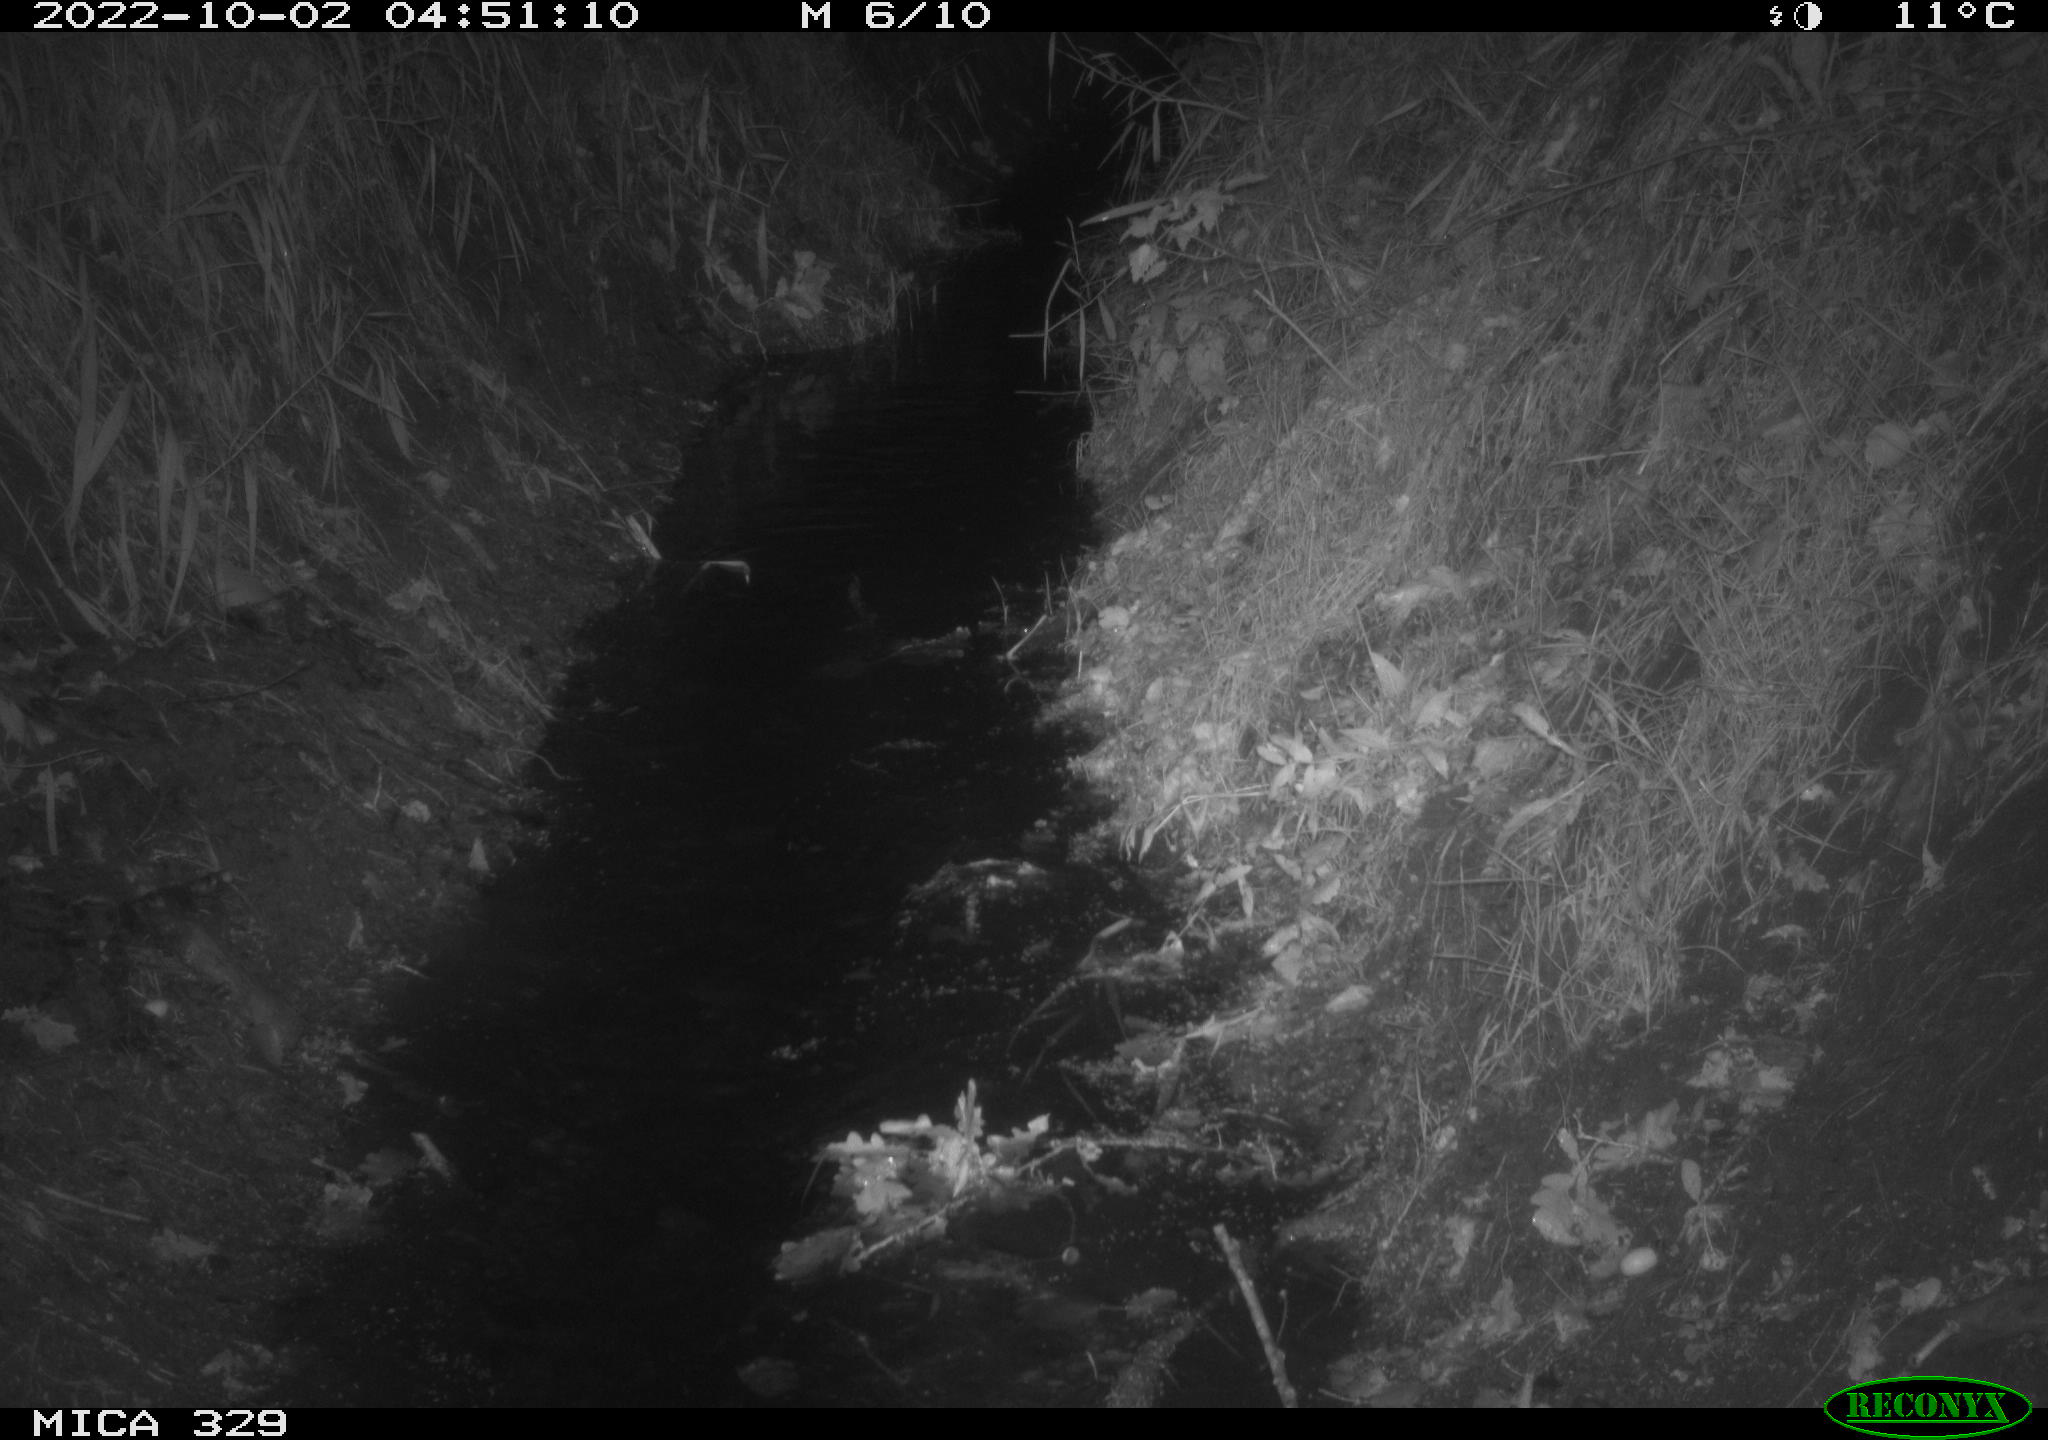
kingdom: Animalia
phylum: Chordata
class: Mammalia
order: Rodentia
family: Cricetidae
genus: Ondatra
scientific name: Ondatra zibethicus
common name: Muskrat
